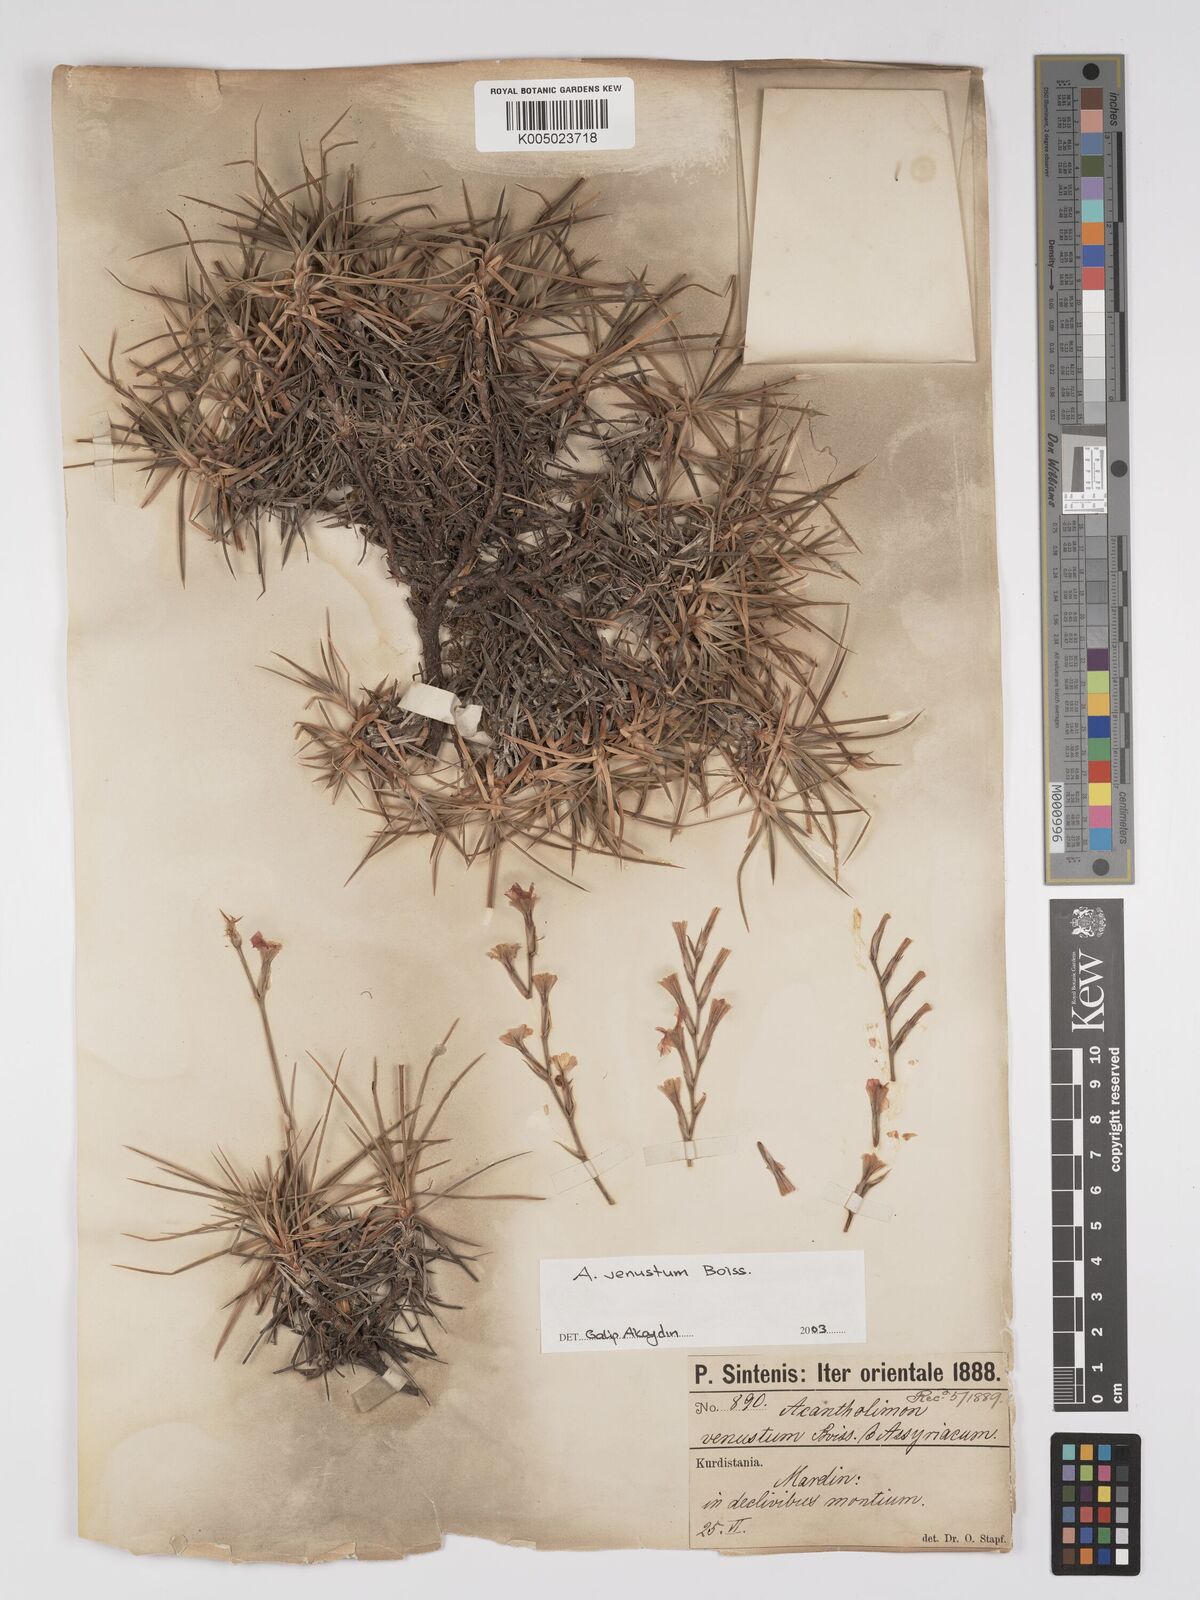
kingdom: Plantae
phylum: Tracheophyta
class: Magnoliopsida
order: Caryophyllales
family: Plumbaginaceae
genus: Acantholimon
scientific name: Acantholimon venustum
